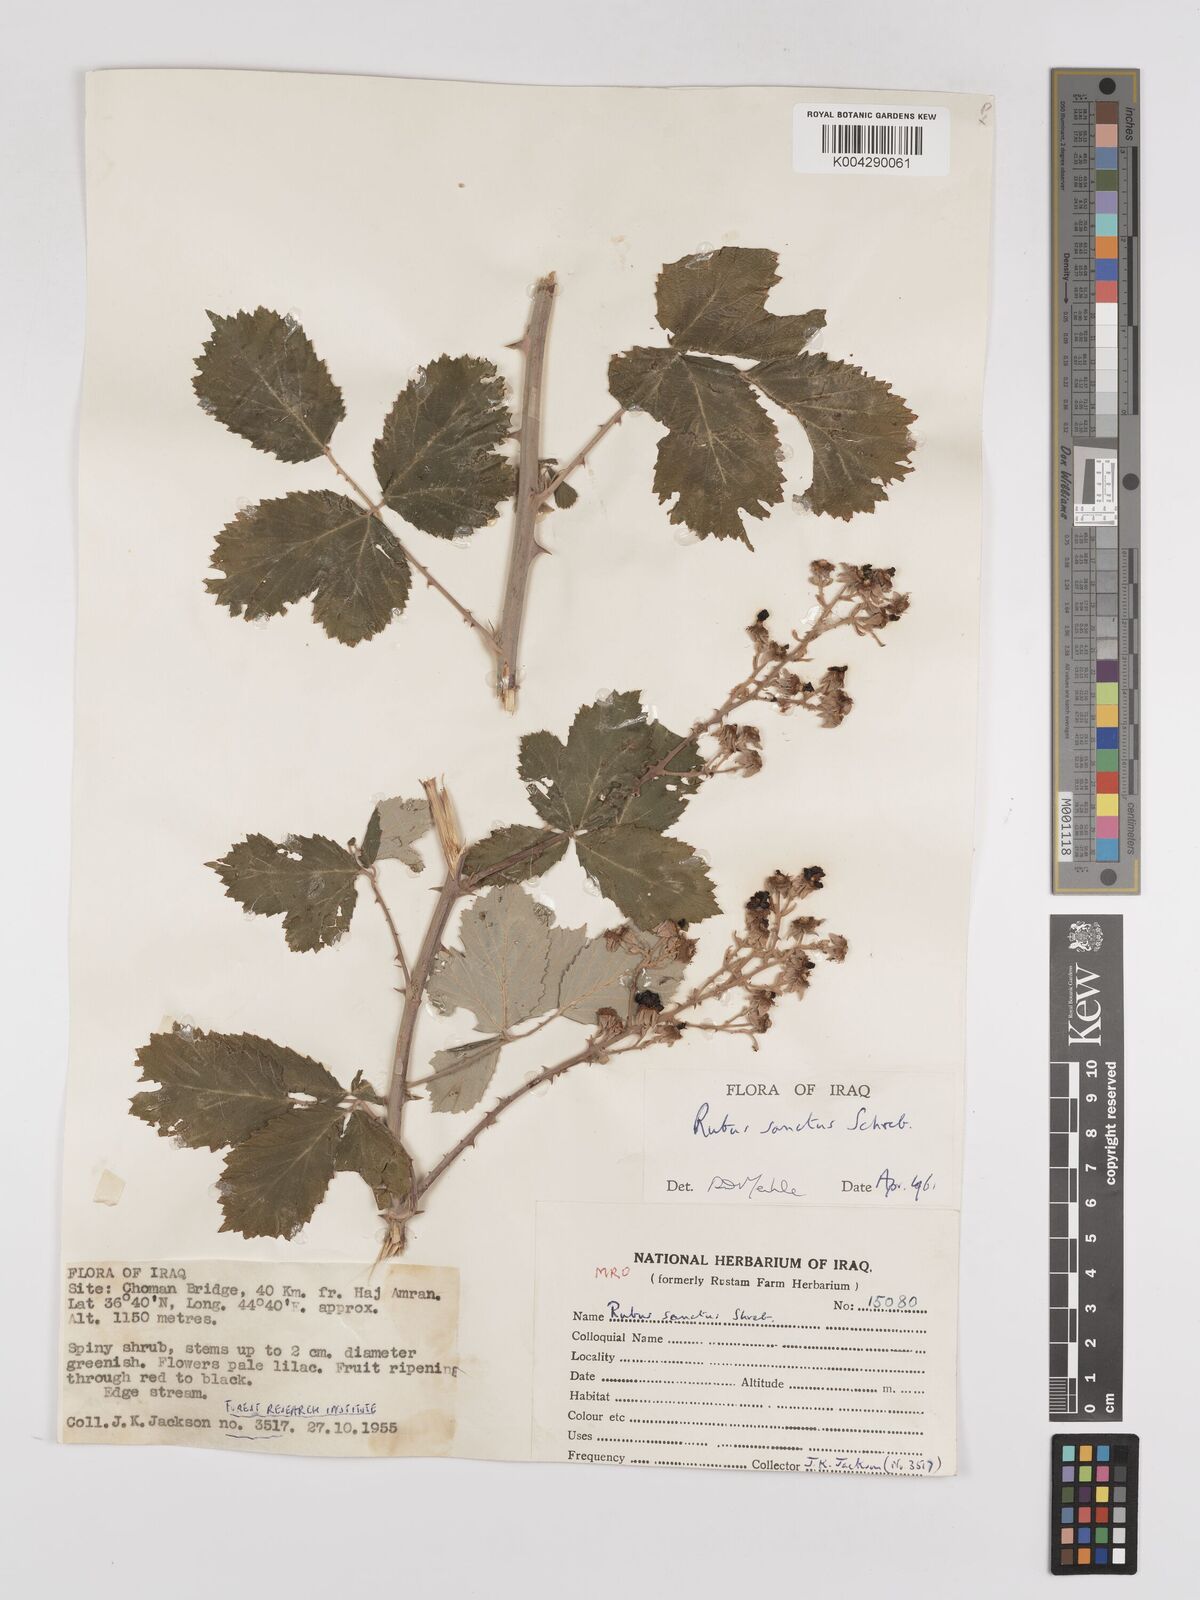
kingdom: Plantae
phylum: Tracheophyta
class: Magnoliopsida
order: Rosales
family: Rosaceae
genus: Rubus
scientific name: Rubus sanctus
